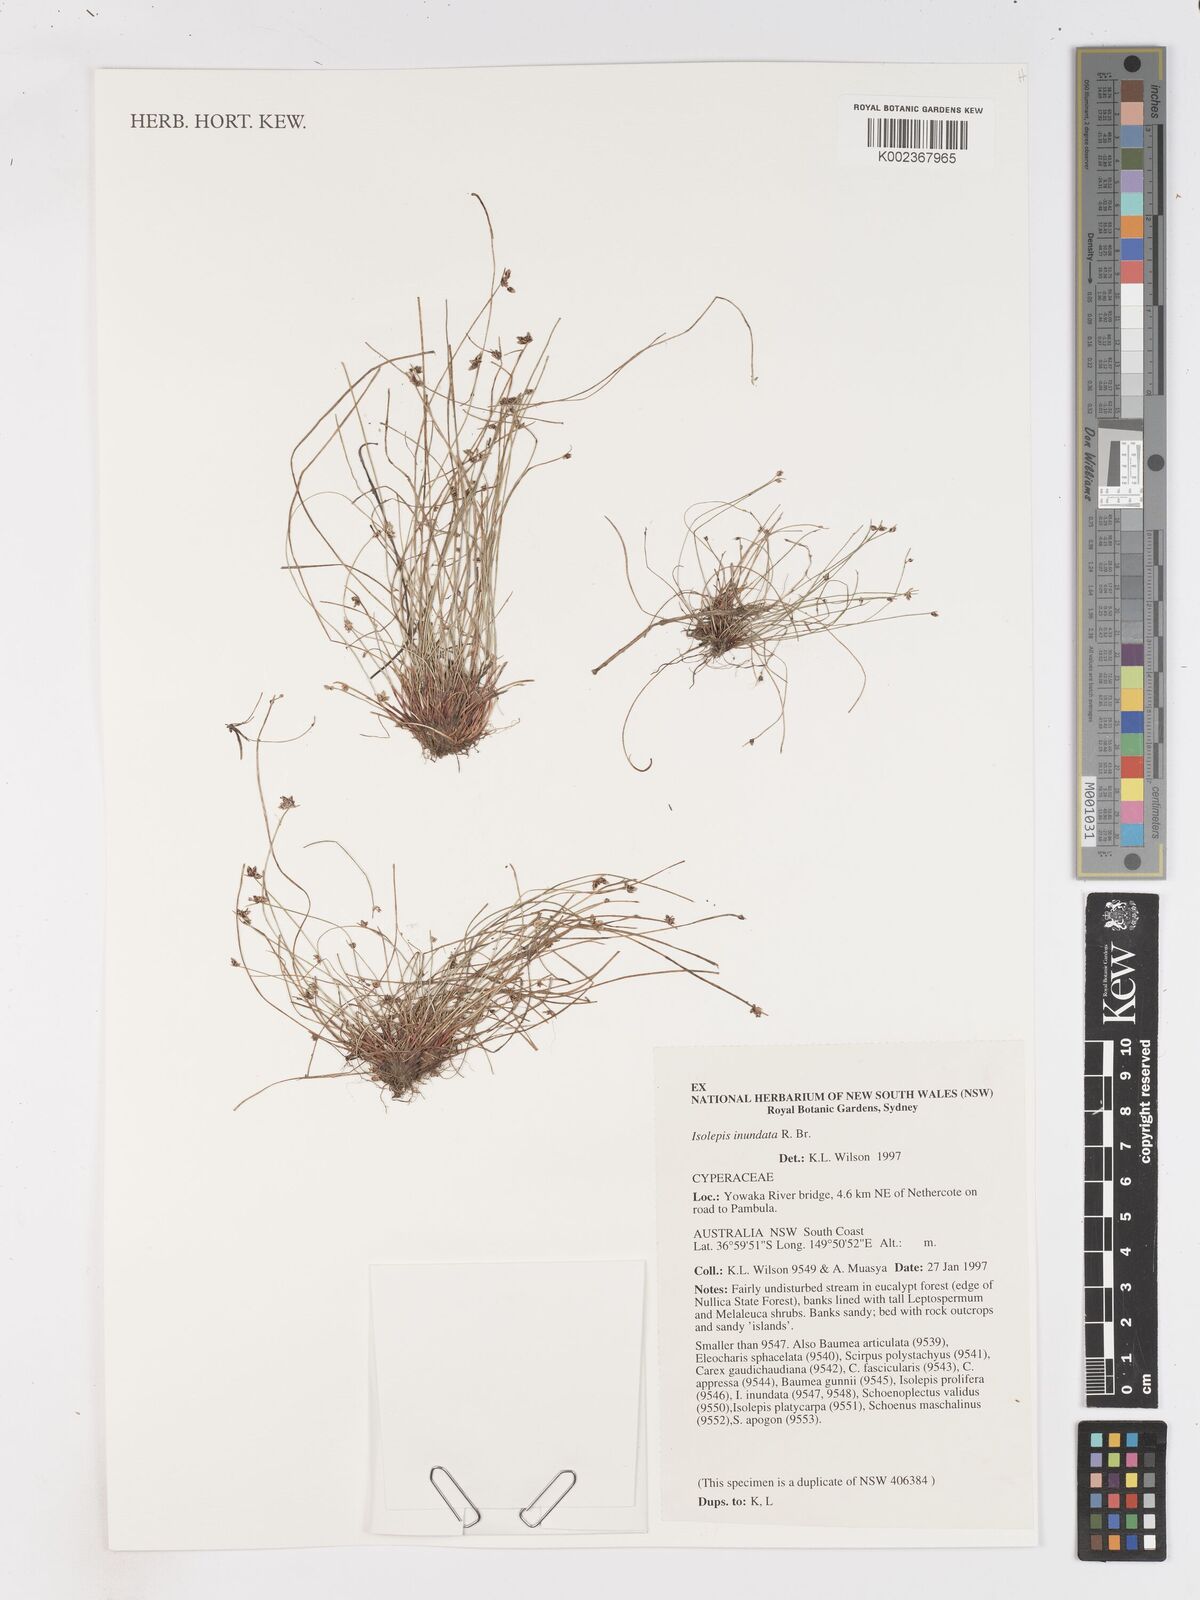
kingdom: Plantae
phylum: Tracheophyta
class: Liliopsida
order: Poales
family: Cyperaceae
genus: Isolepis
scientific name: Isolepis inundata
